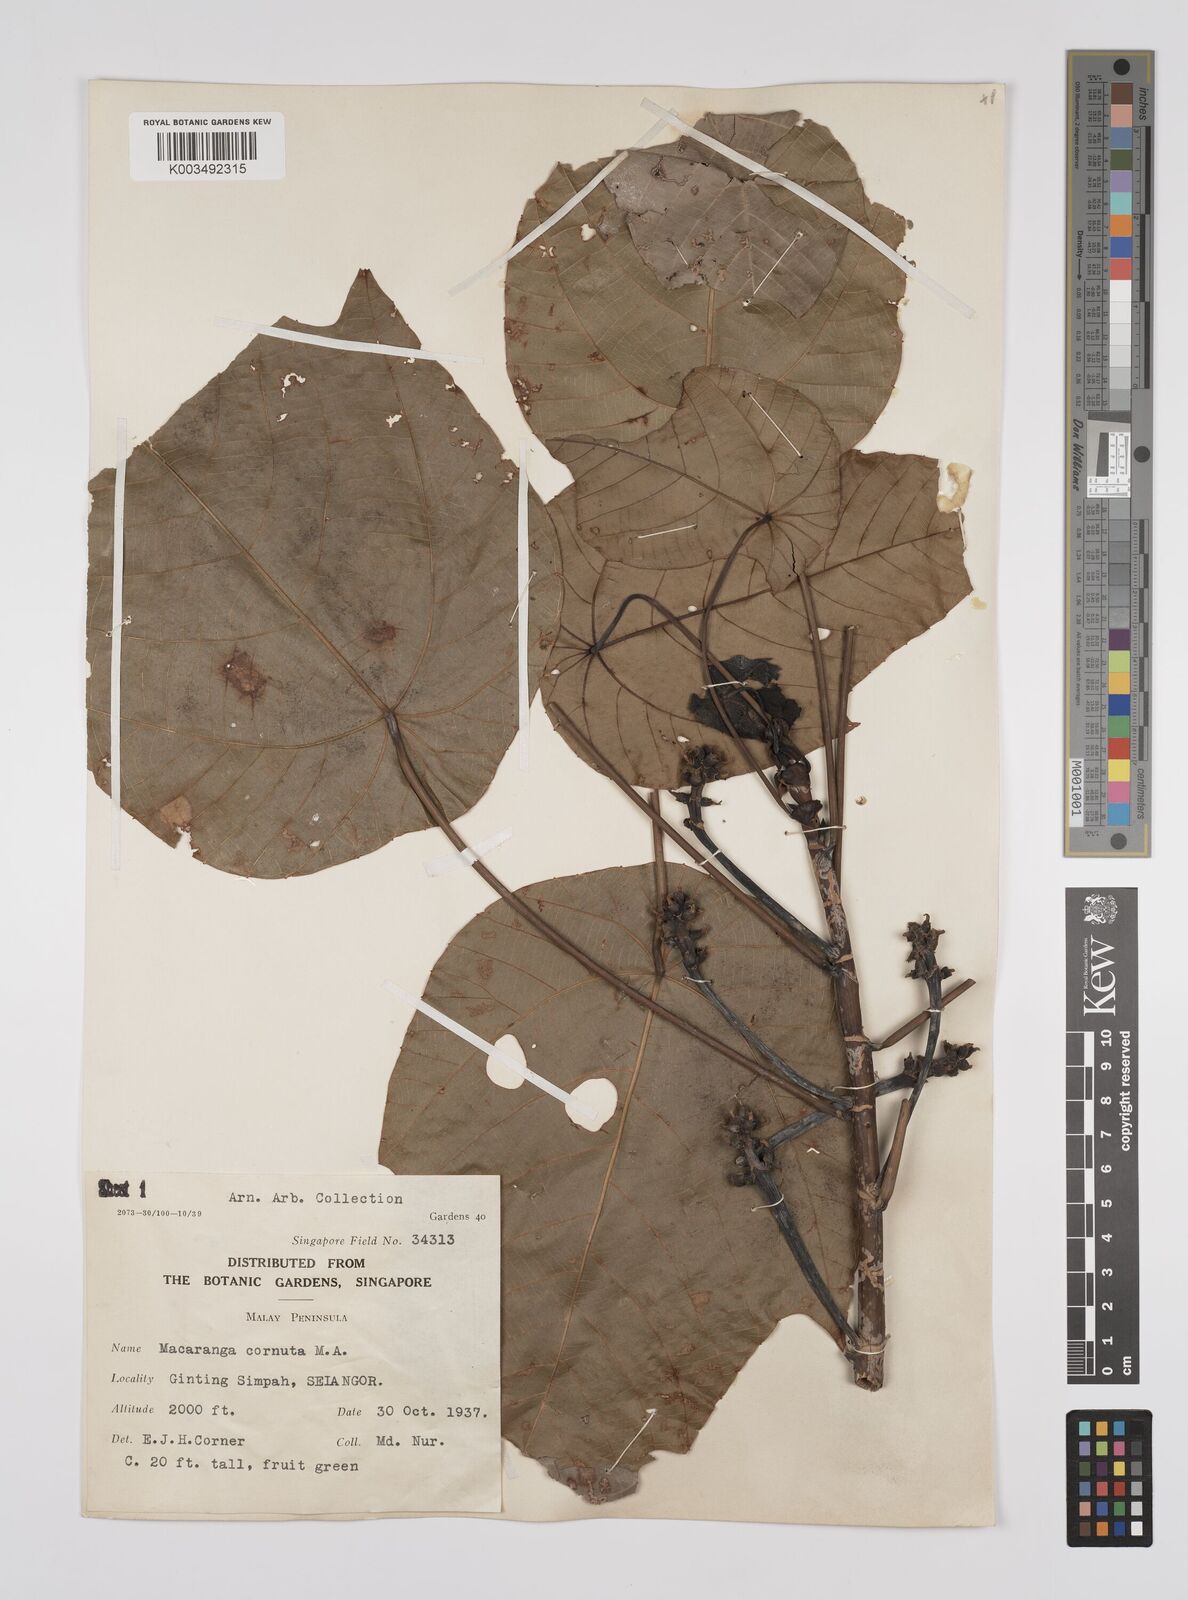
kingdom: Plantae
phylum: Tracheophyta
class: Magnoliopsida
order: Malpighiales
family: Euphorbiaceae
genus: Macaranga
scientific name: Macaranga hullettii
